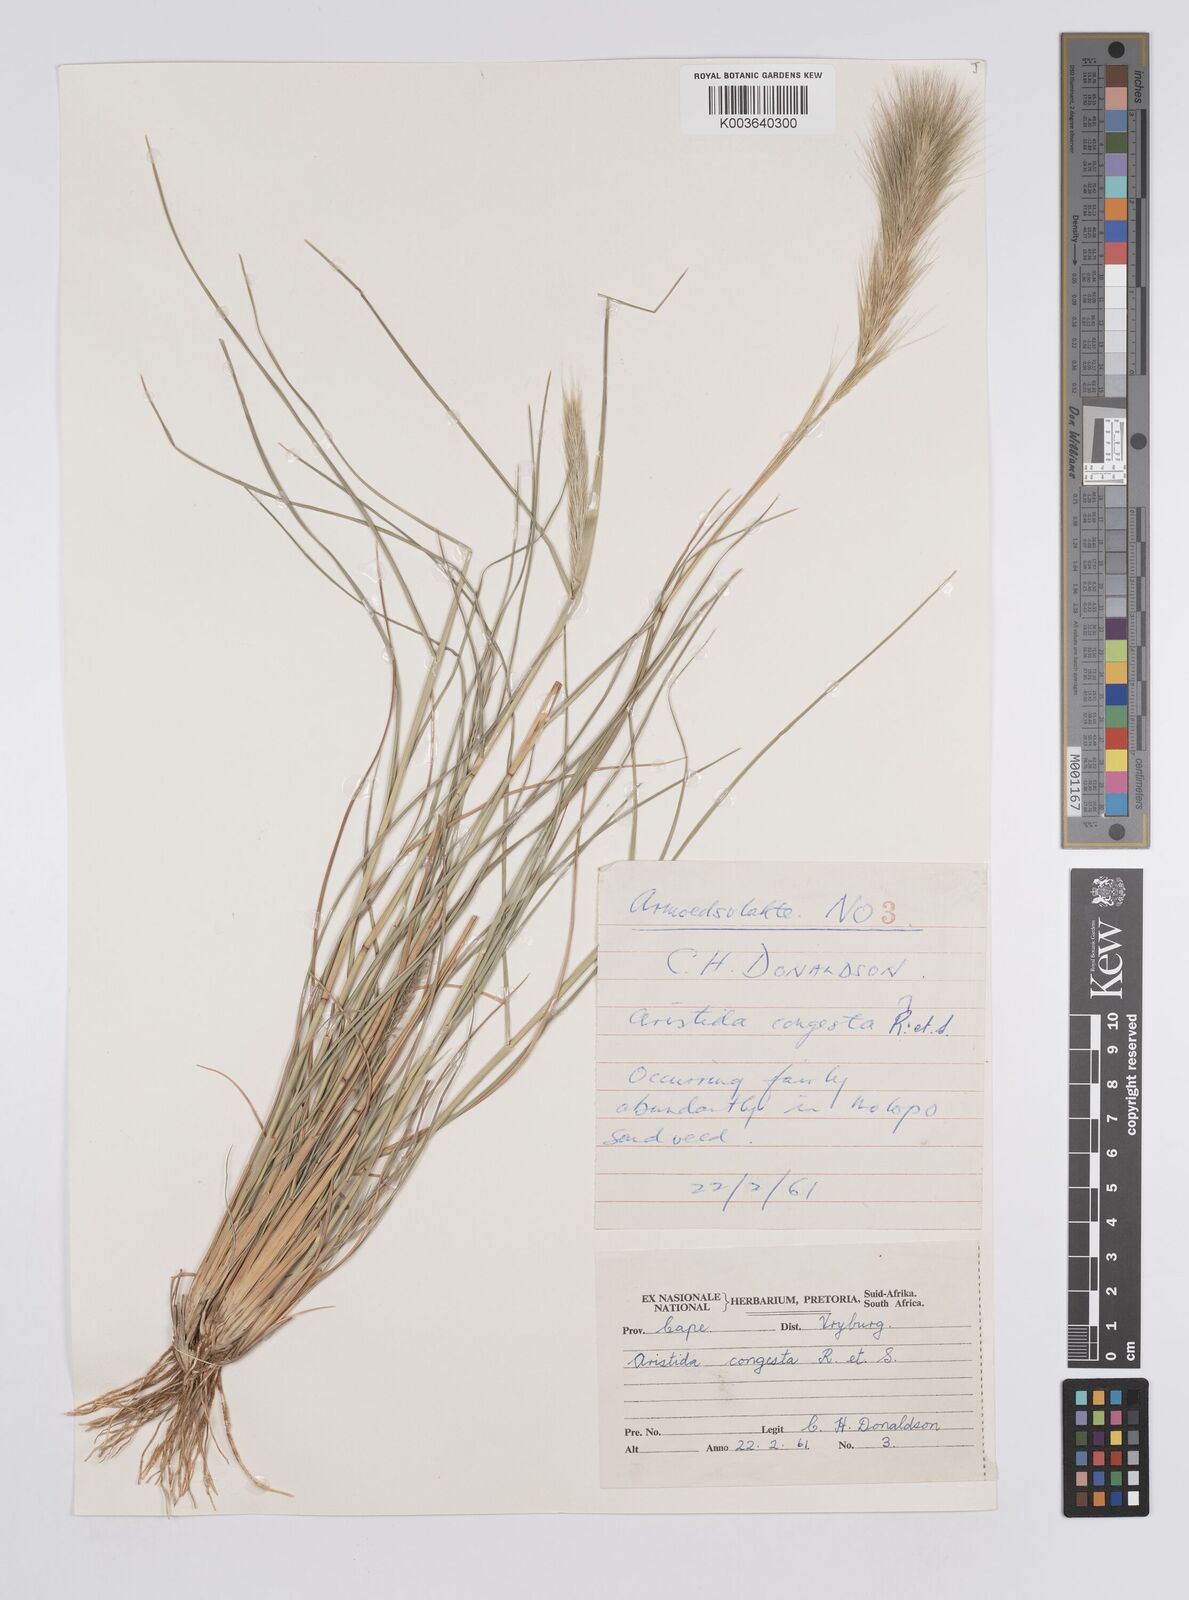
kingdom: Plantae
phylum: Tracheophyta
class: Liliopsida
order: Poales
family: Poaceae
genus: Aristida
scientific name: Aristida congesta
